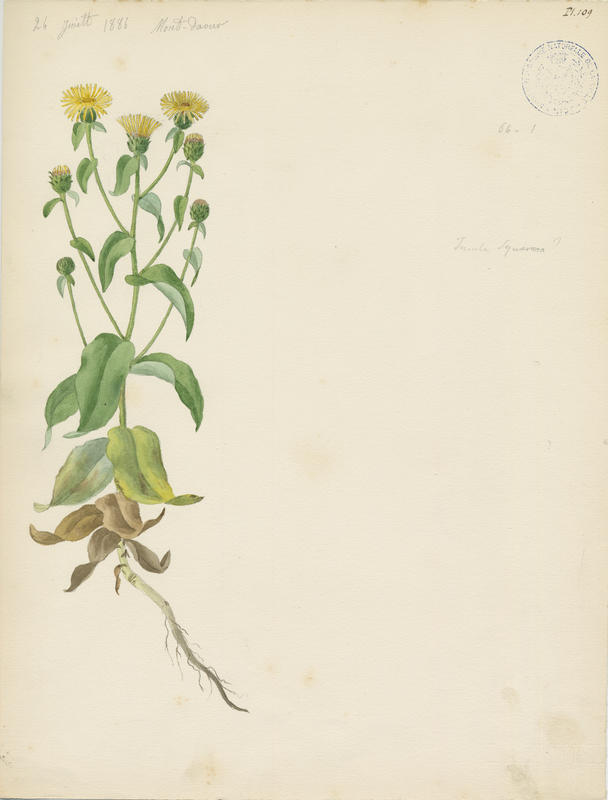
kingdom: Plantae
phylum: Tracheophyta
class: Magnoliopsida
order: Asterales
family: Asteraceae
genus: Pentanema
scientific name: Pentanema spiraeifolium
